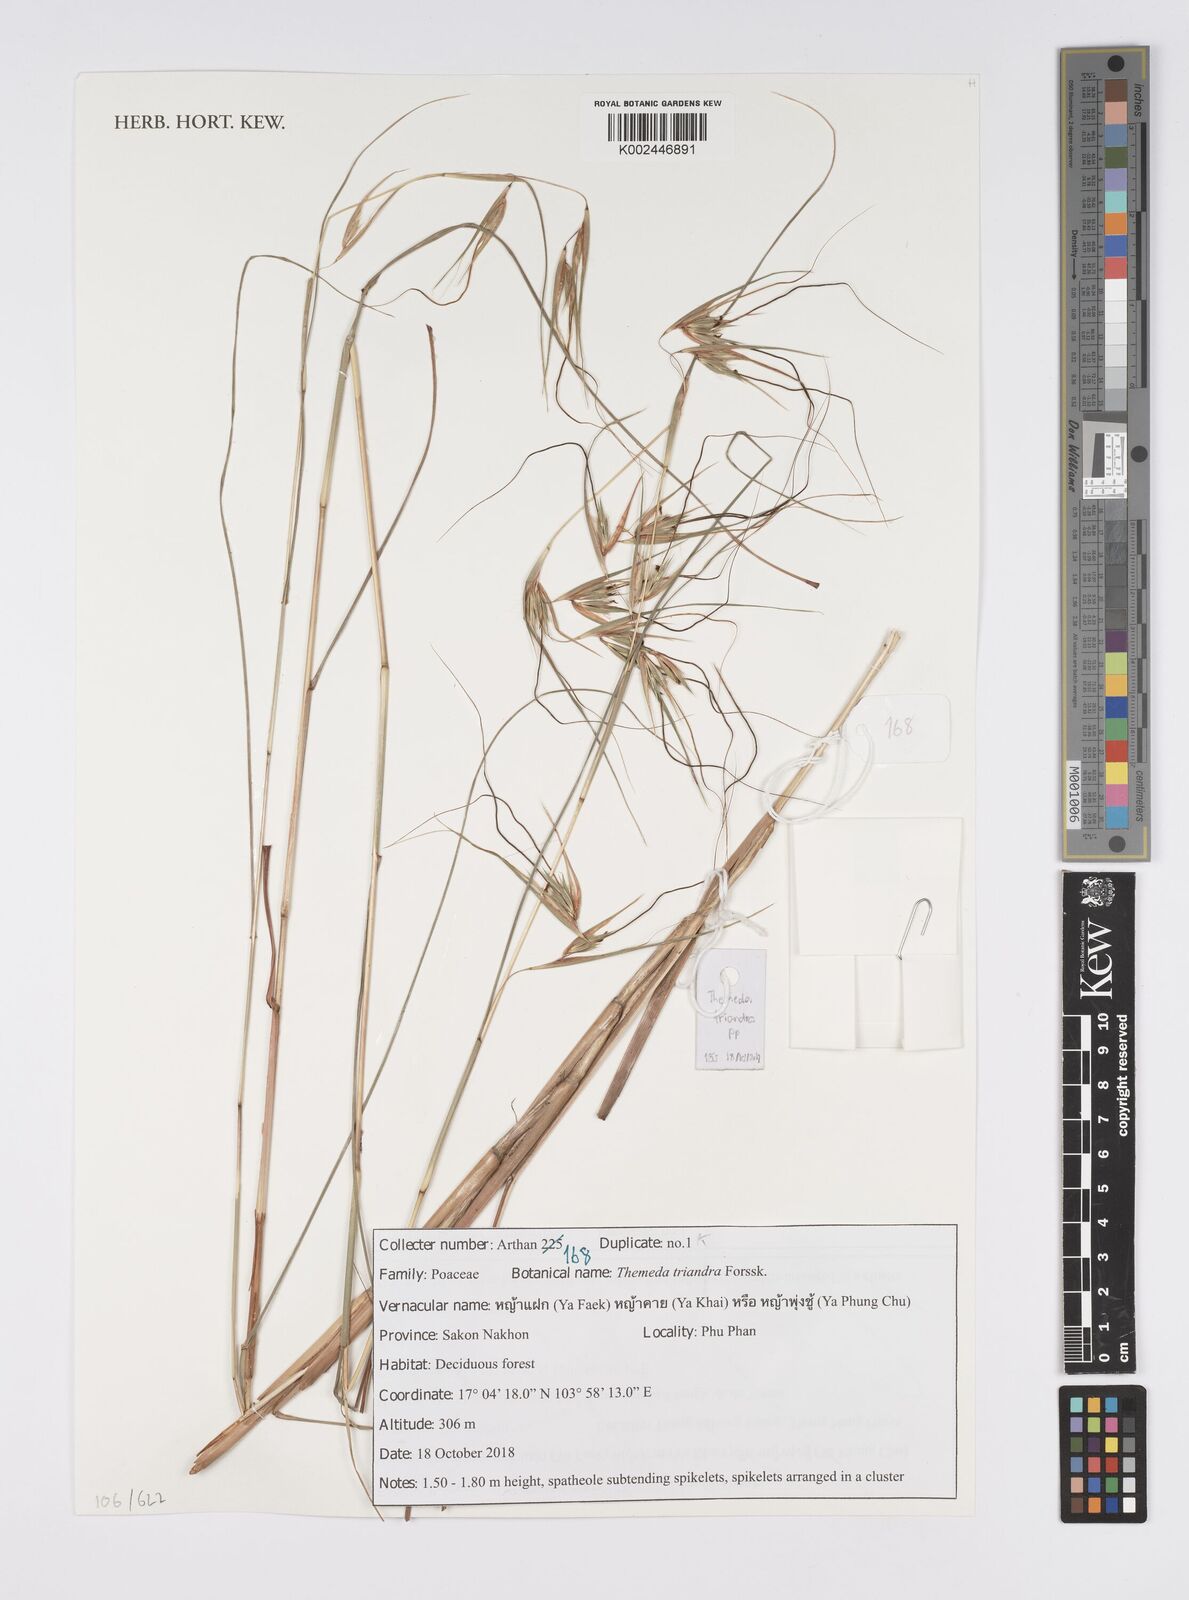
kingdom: Plantae
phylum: Tracheophyta
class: Liliopsida
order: Poales
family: Poaceae
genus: Themeda
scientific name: Themeda triandra
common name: Kangaroo grass
